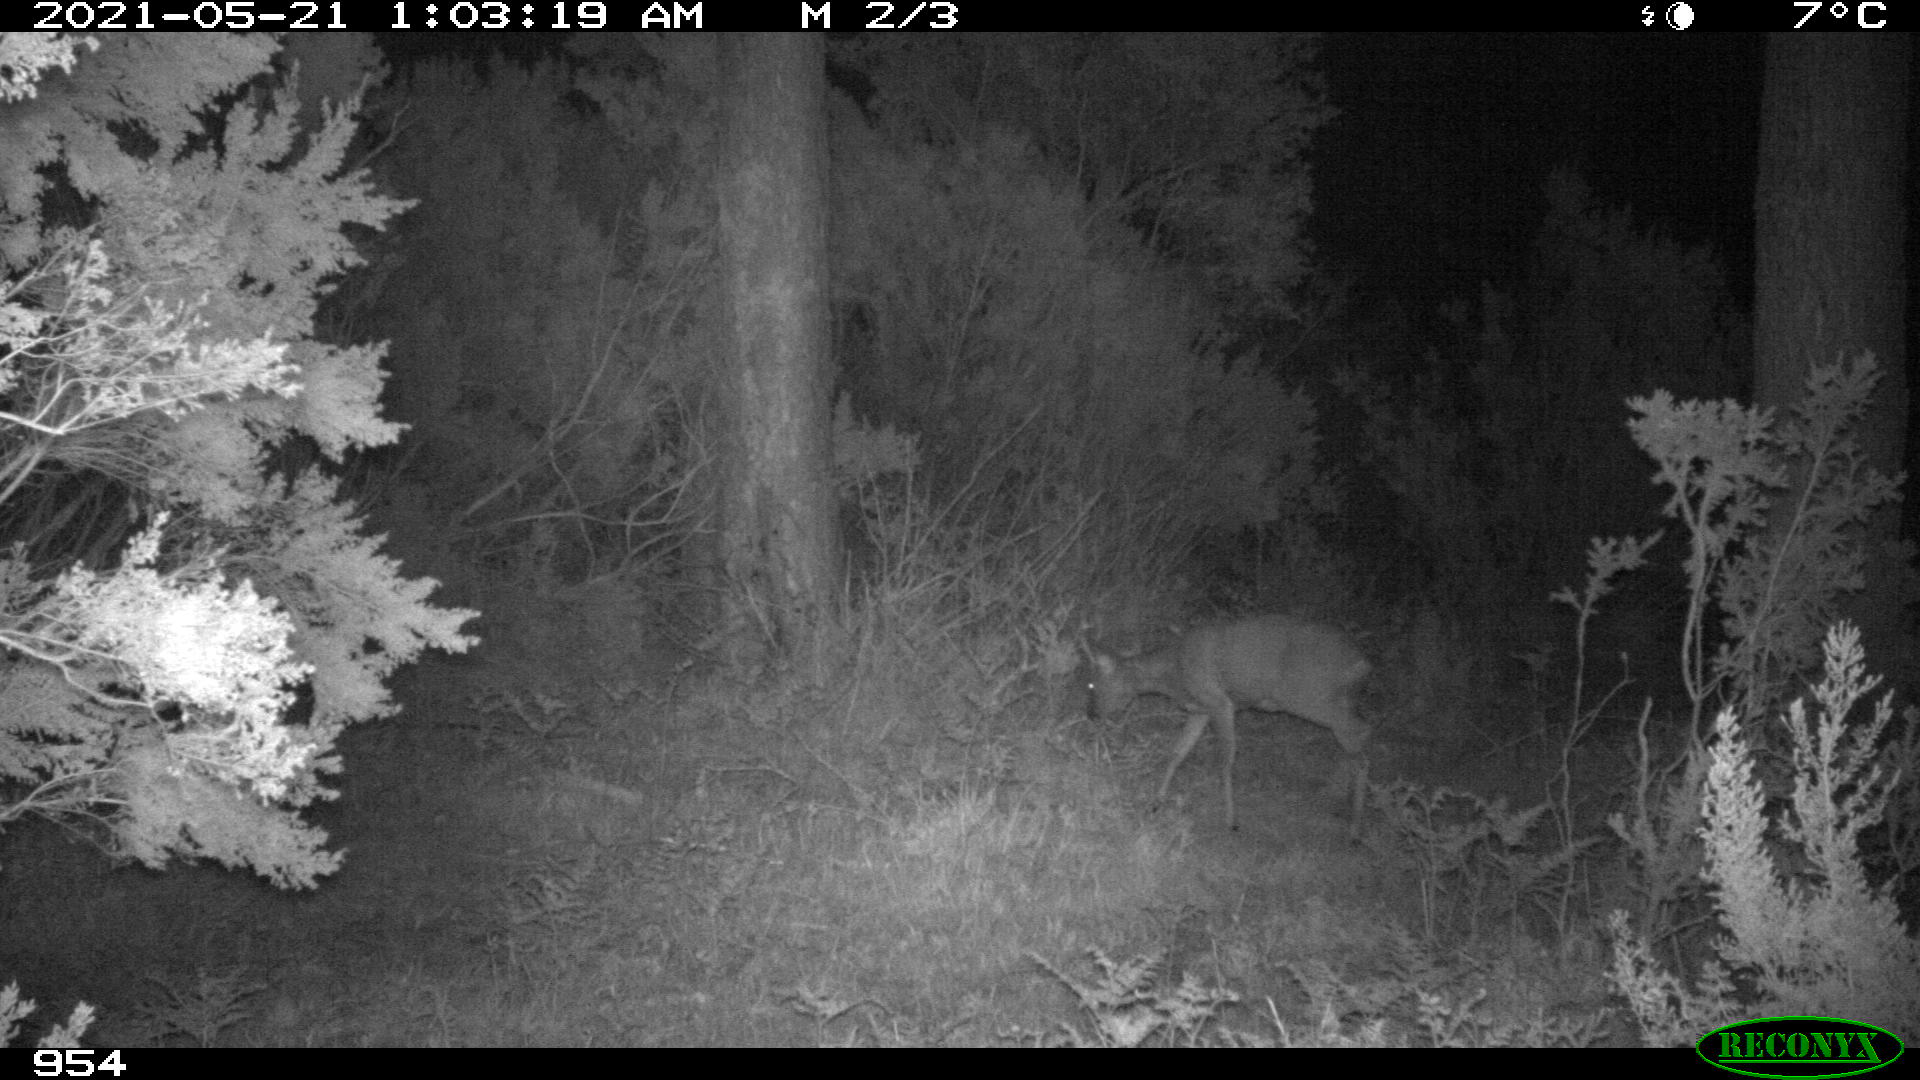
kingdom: Animalia
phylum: Chordata
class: Mammalia
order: Artiodactyla
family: Cervidae
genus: Capreolus
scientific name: Capreolus capreolus
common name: Western roe deer
